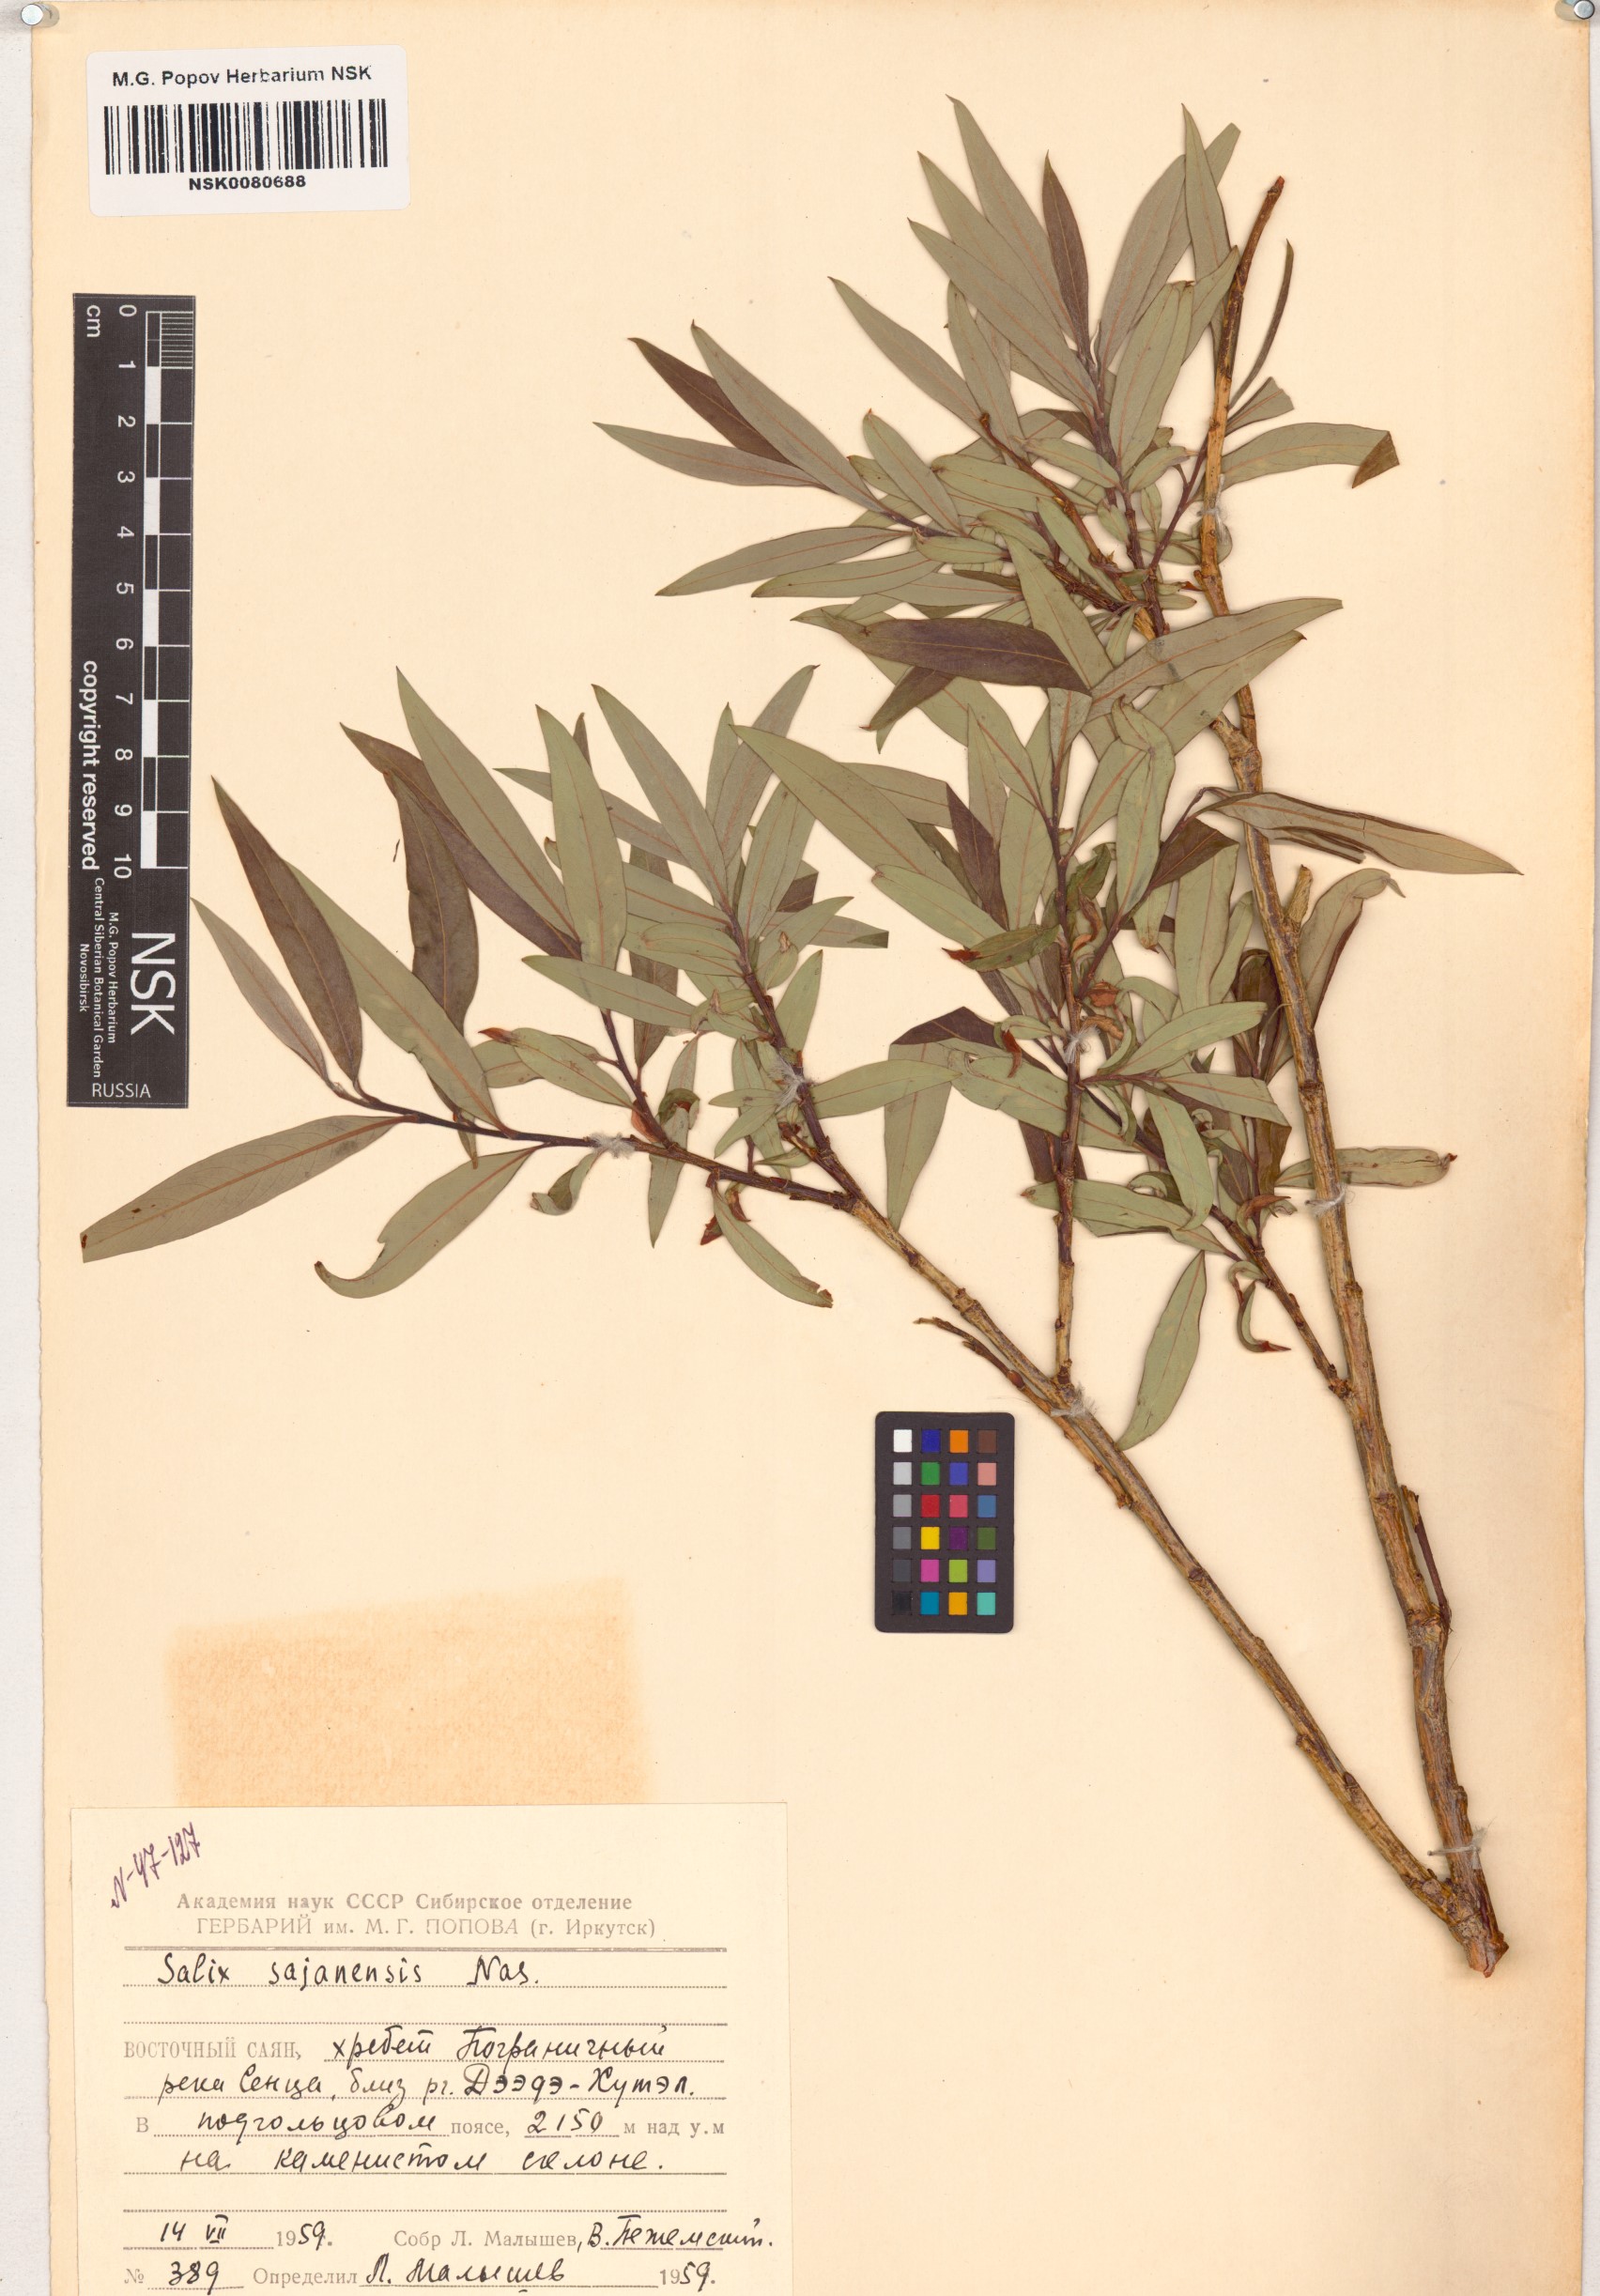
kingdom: Plantae
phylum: Tracheophyta
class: Magnoliopsida
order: Malpighiales
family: Salicaceae
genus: Salix
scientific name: Salix sajanensis
